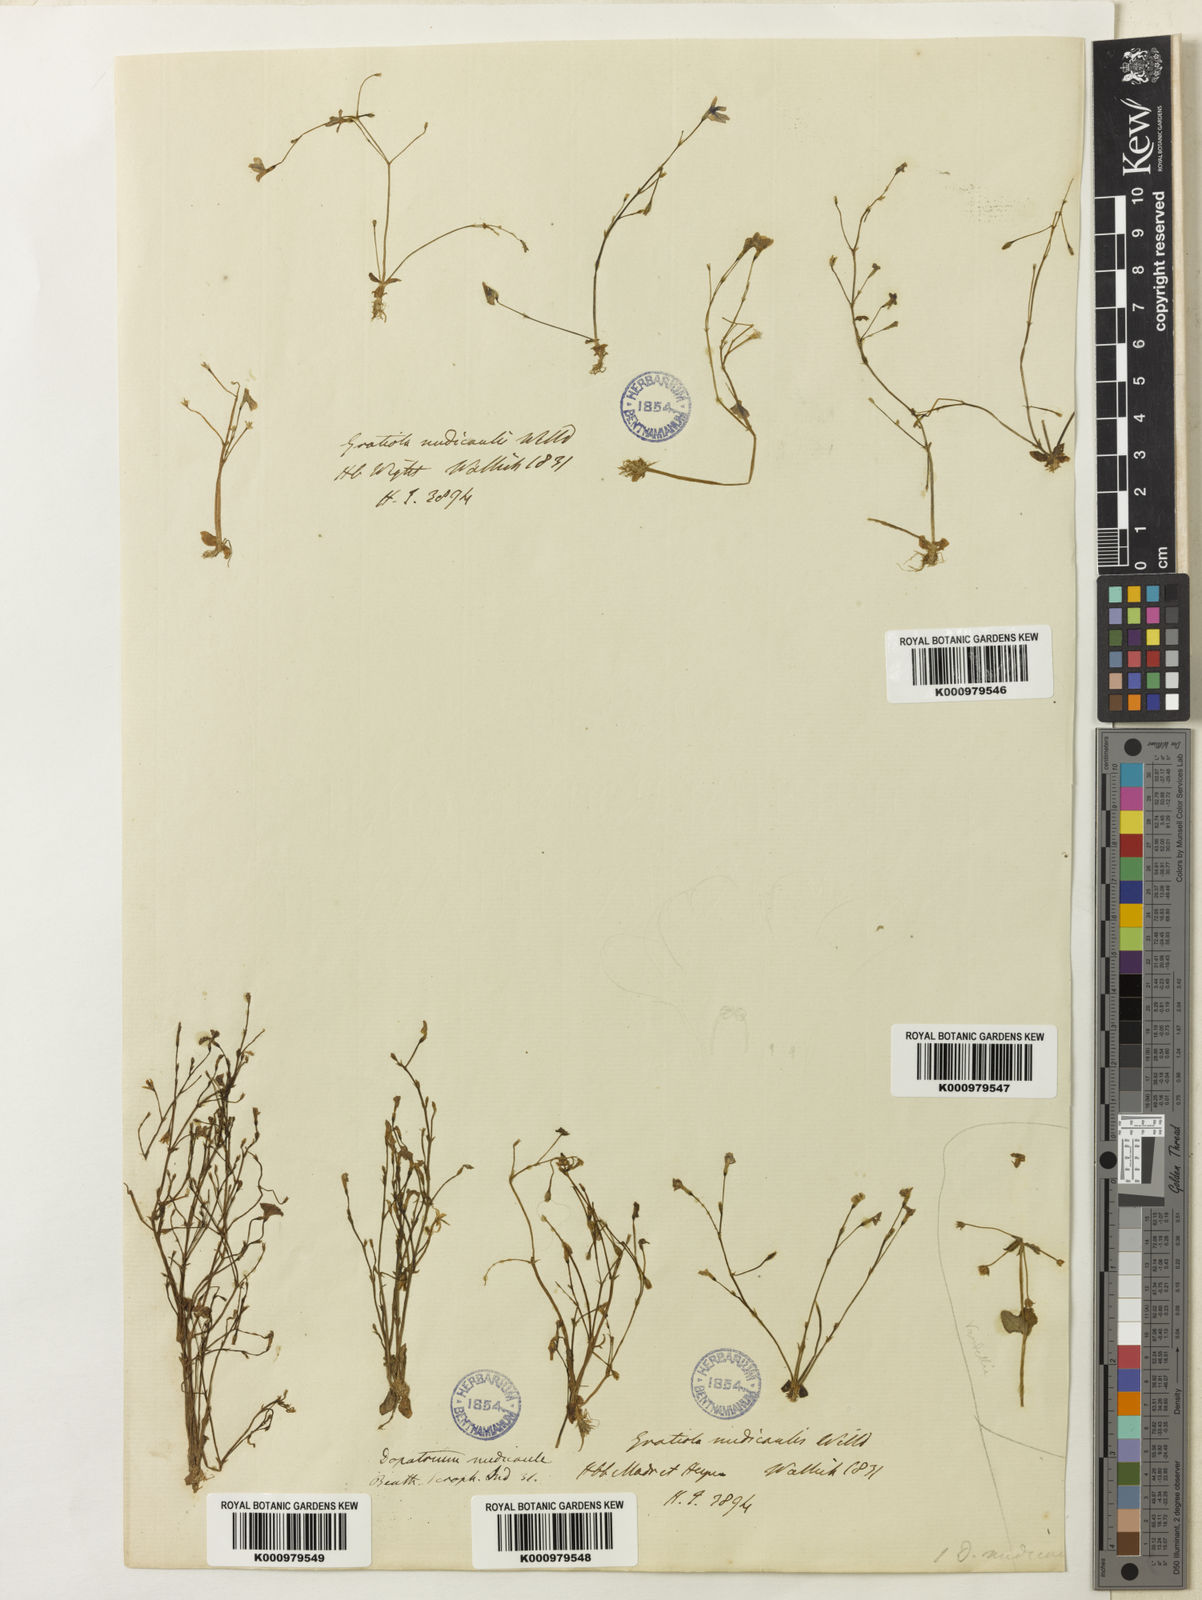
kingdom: Plantae
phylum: Tracheophyta
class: Magnoliopsida
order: Lamiales
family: Plantaginaceae
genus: Dopatrium
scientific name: Dopatrium nudicaule
